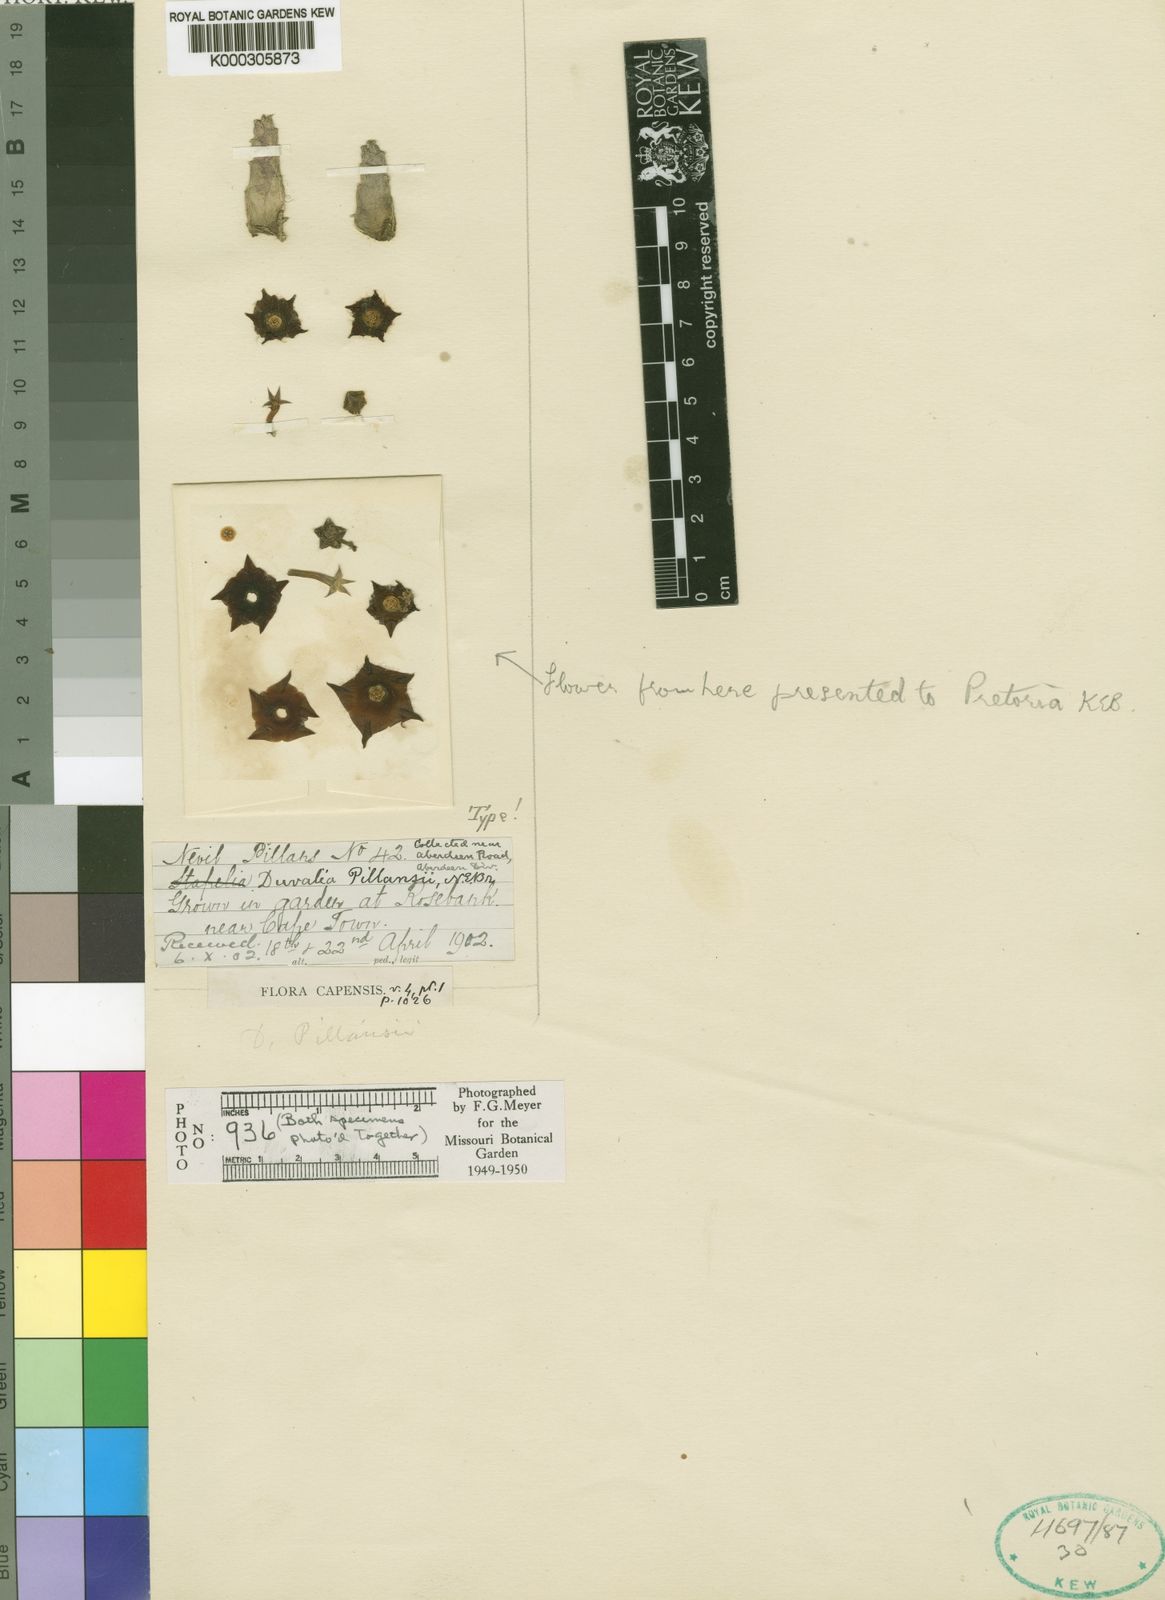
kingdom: Plantae
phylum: Tracheophyta
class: Magnoliopsida
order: Gentianales
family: Apocynaceae
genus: Ceropegia
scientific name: Ceropegia pillansiana
